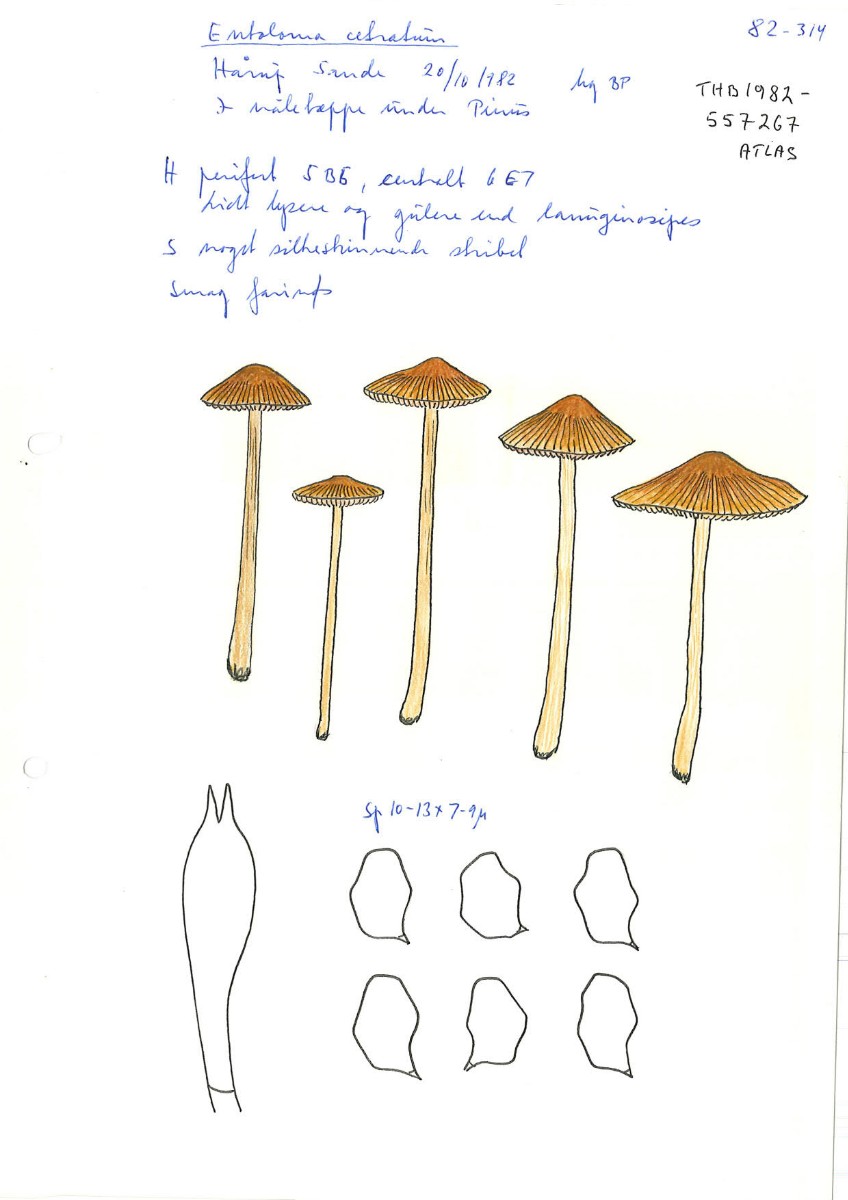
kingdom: Fungi
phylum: Basidiomycota
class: Agaricomycetes
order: Agaricales
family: Entolomataceae
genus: Entoloma
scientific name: Entoloma cetratum
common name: voks-rødblad
